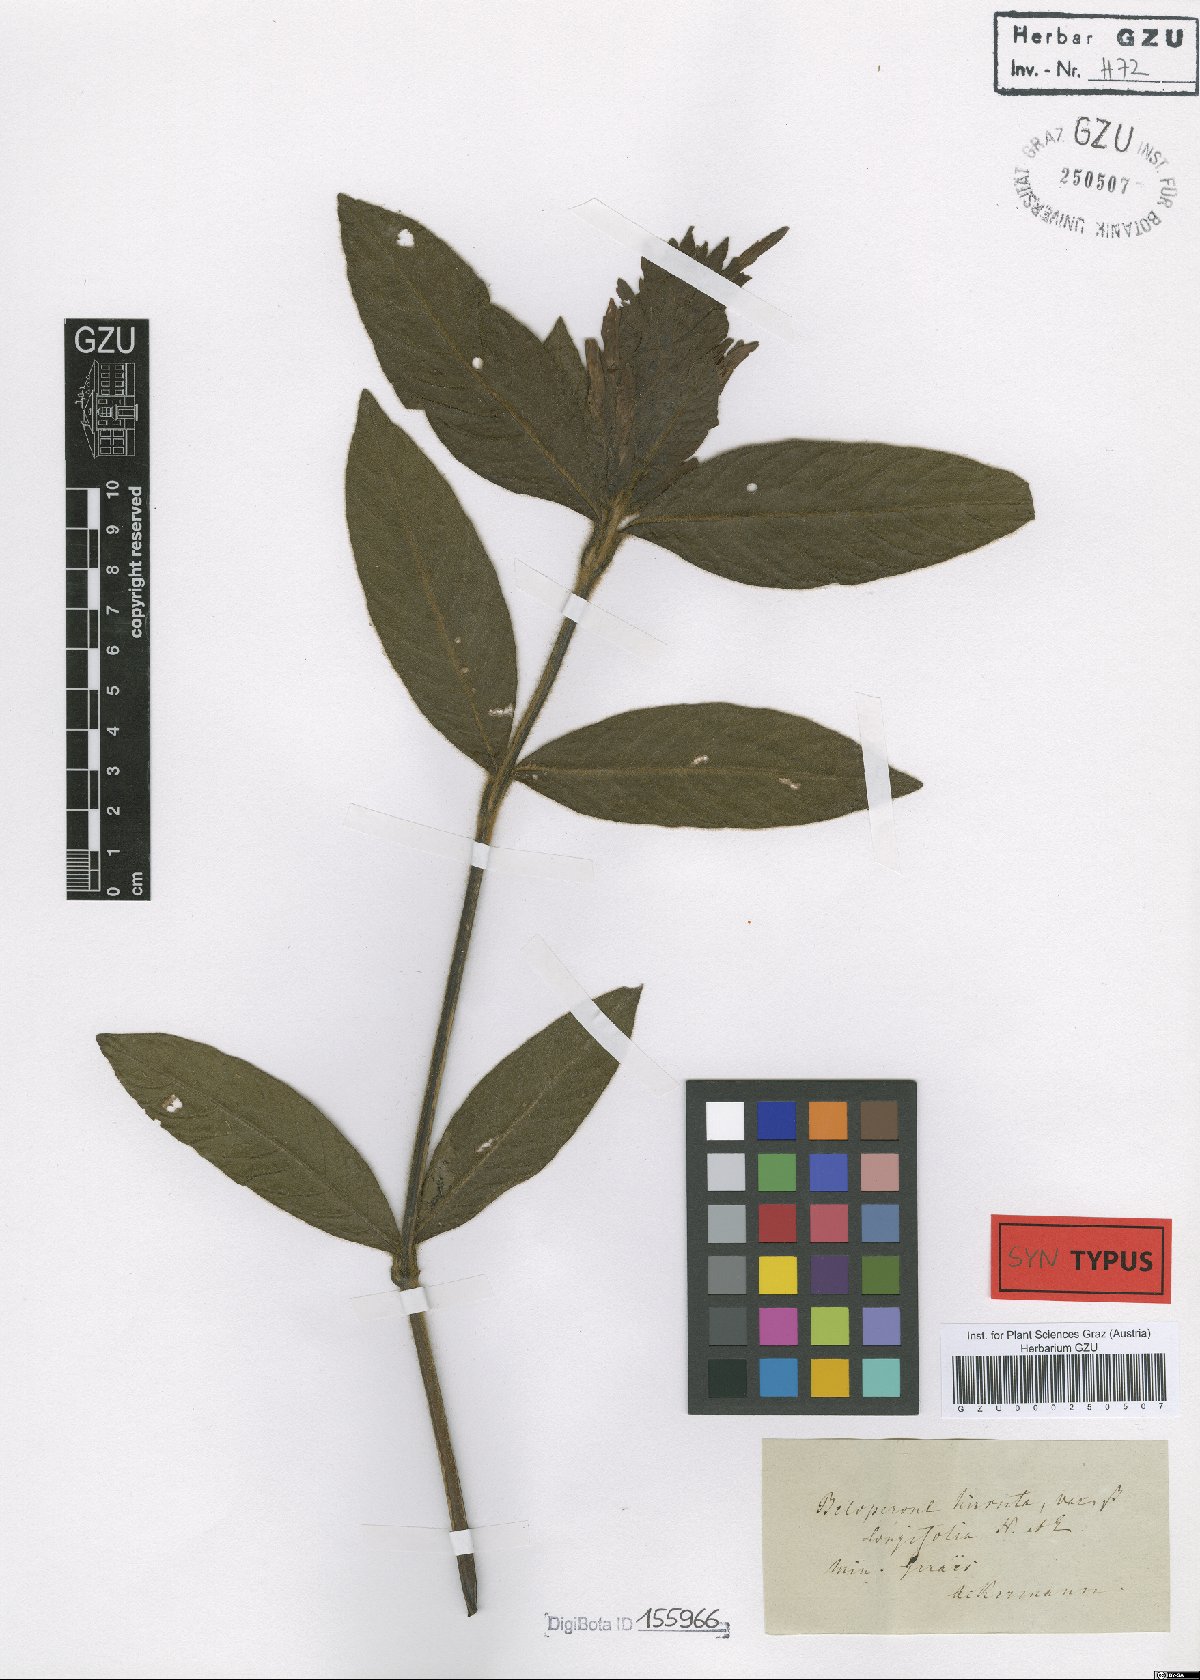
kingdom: Plantae
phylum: Tracheophyta
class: Magnoliopsida
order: Lamiales
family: Acanthaceae
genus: Justicia
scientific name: Justicia pohliana
